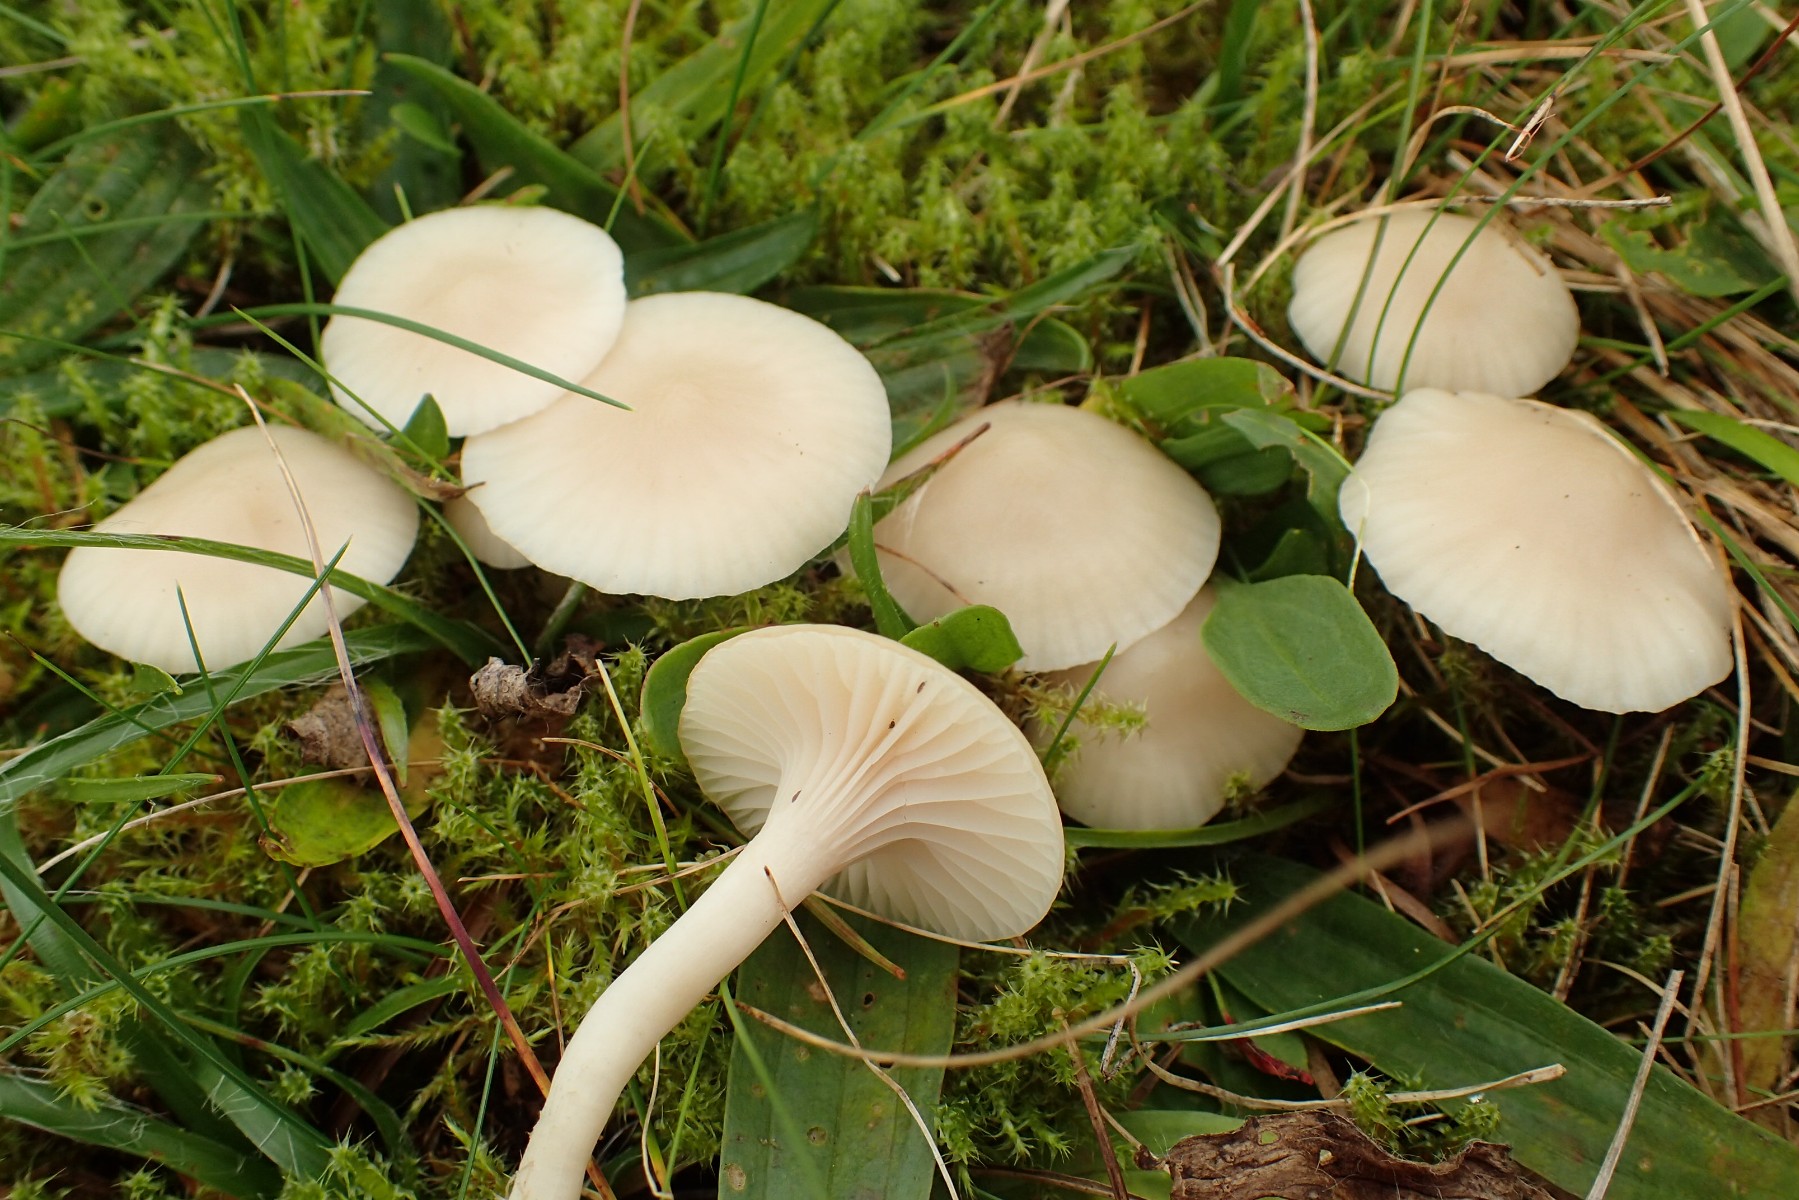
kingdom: Fungi
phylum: Basidiomycota
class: Agaricomycetes
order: Agaricales
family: Hygrophoraceae
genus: Cuphophyllus
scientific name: Cuphophyllus virgineus
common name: snehvid vokshat
